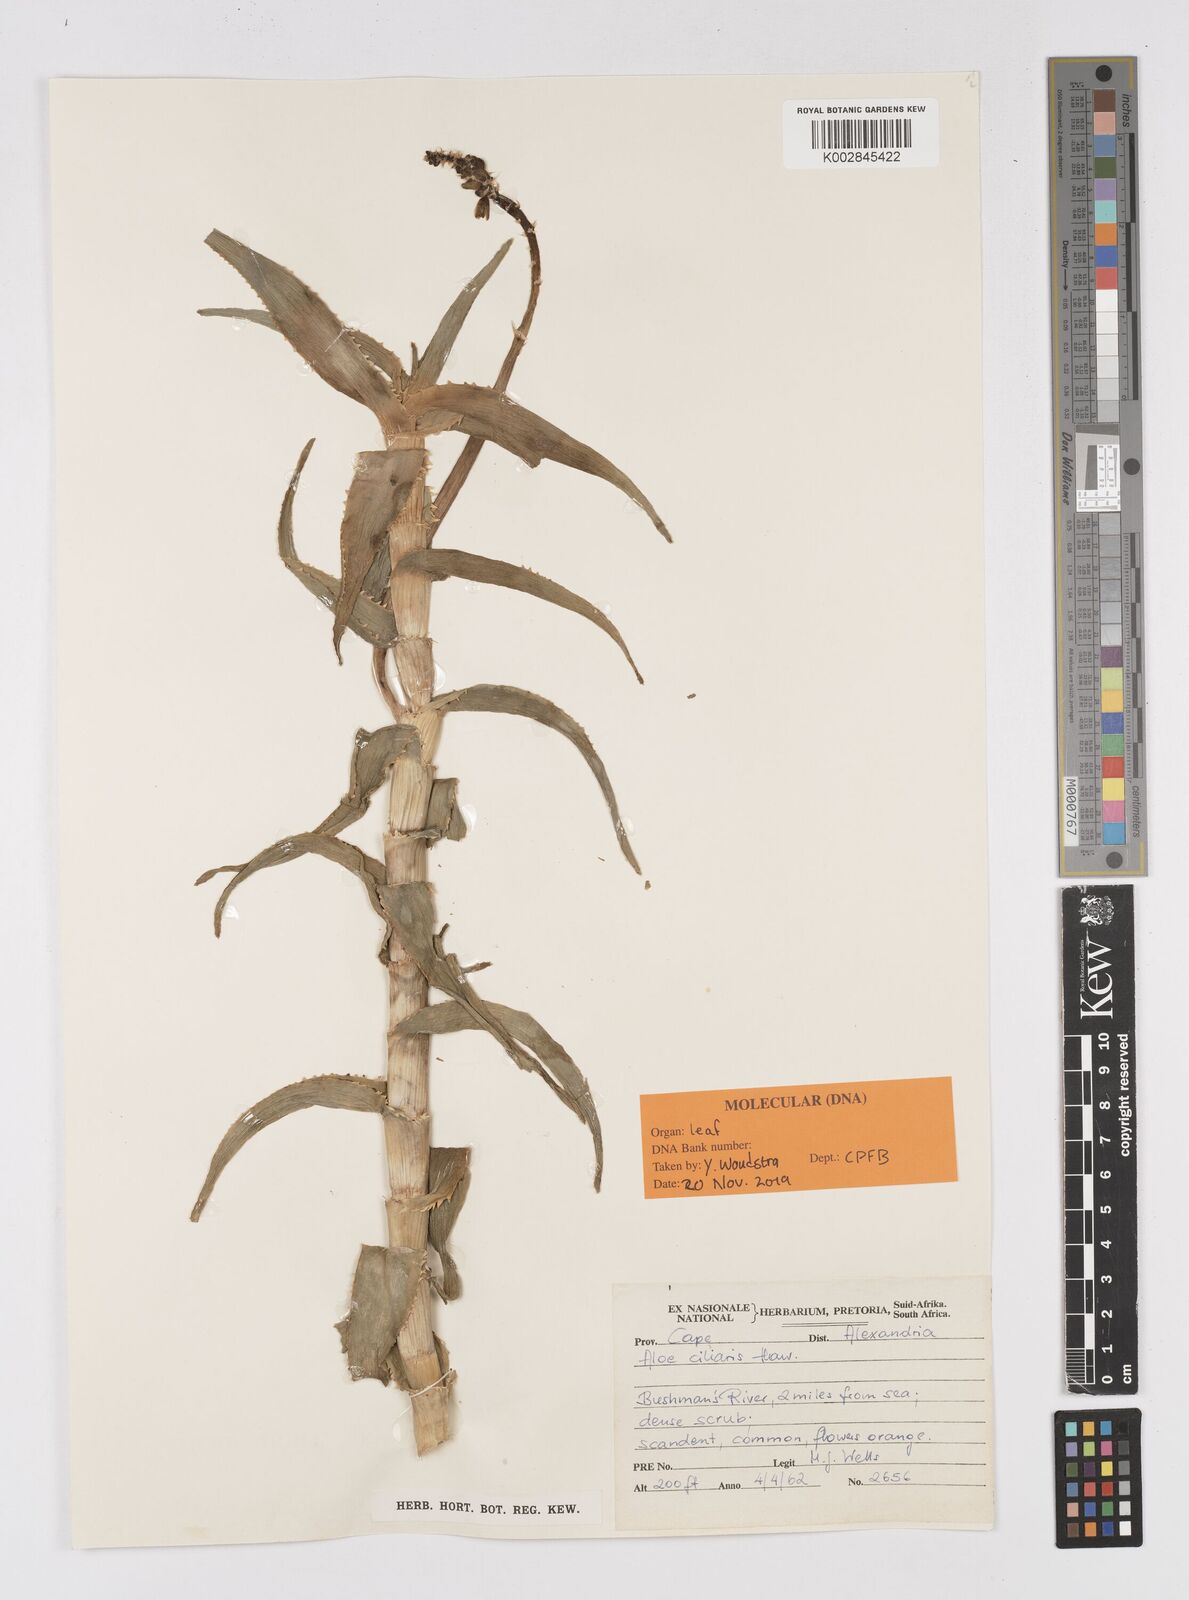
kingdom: Plantae
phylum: Tracheophyta
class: Liliopsida
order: Asparagales
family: Asphodelaceae
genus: Aloiampelos
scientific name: Aloiampelos ciliaris
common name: Climbing aloe
